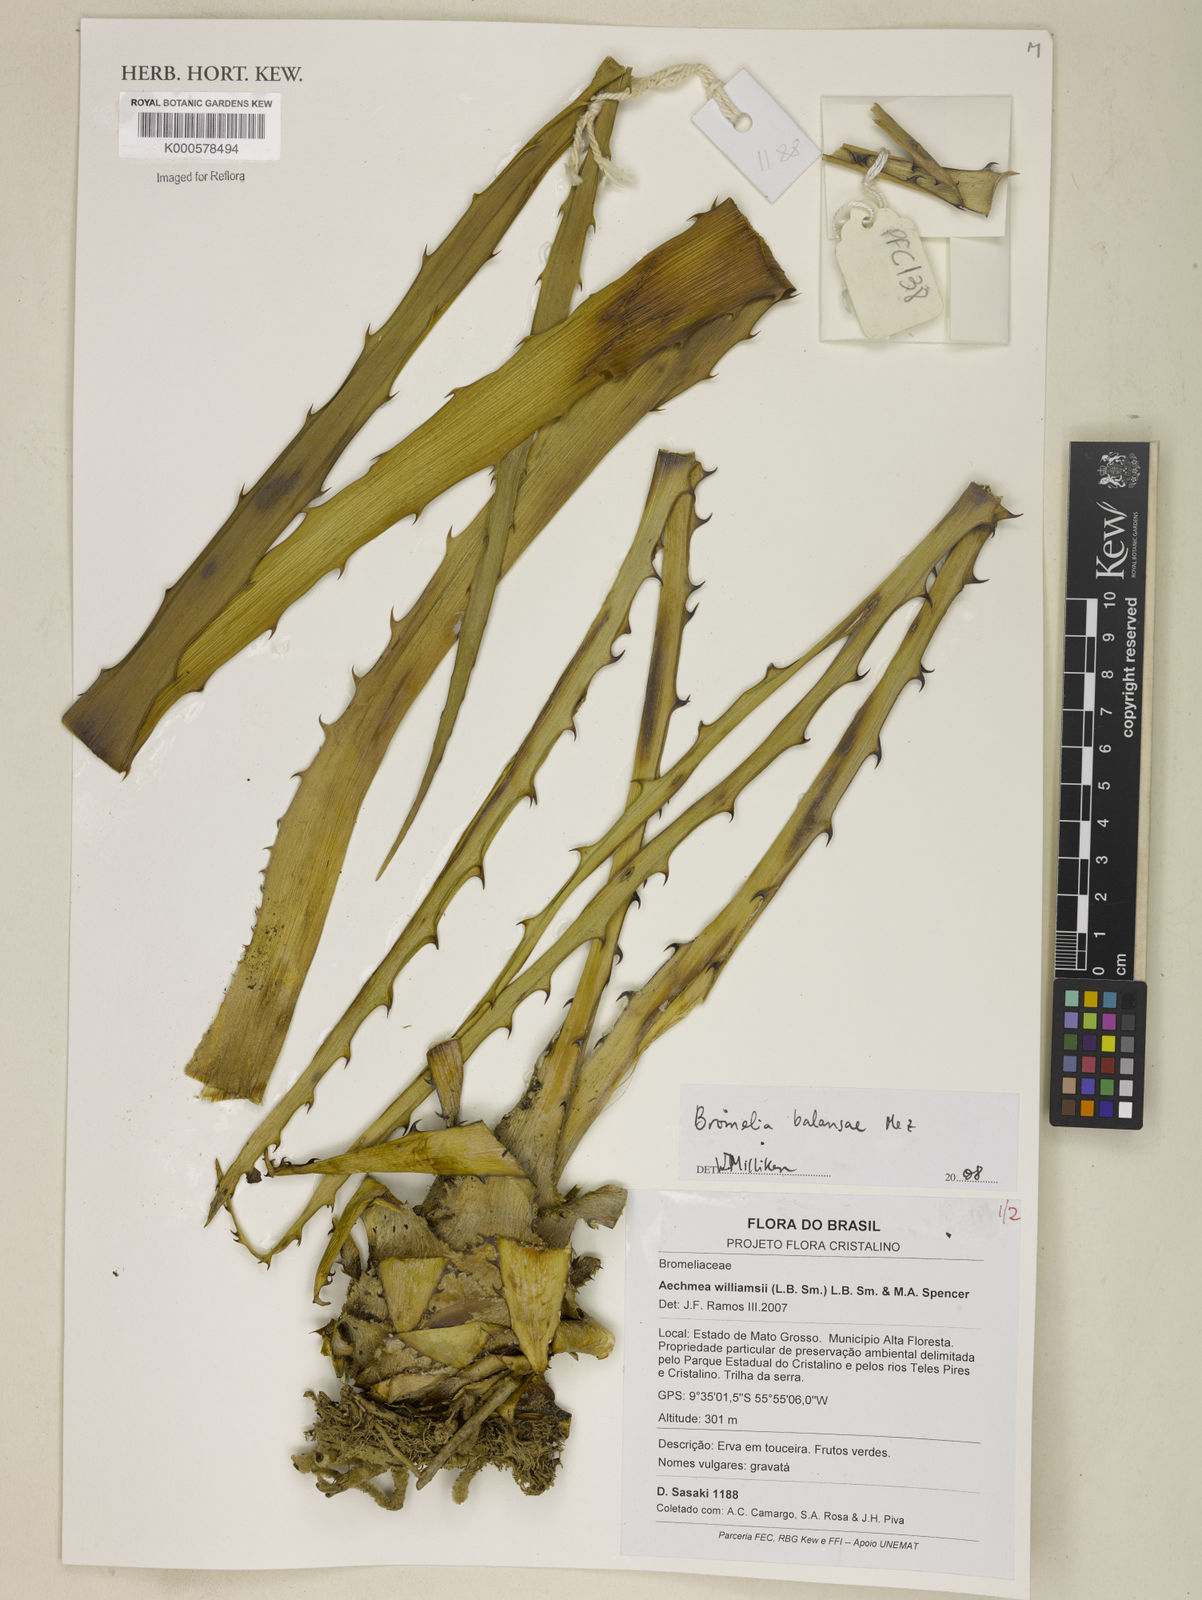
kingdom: Plantae
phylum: Tracheophyta
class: Liliopsida
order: Poales
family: Bromeliaceae
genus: Bromelia
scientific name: Bromelia balansae
